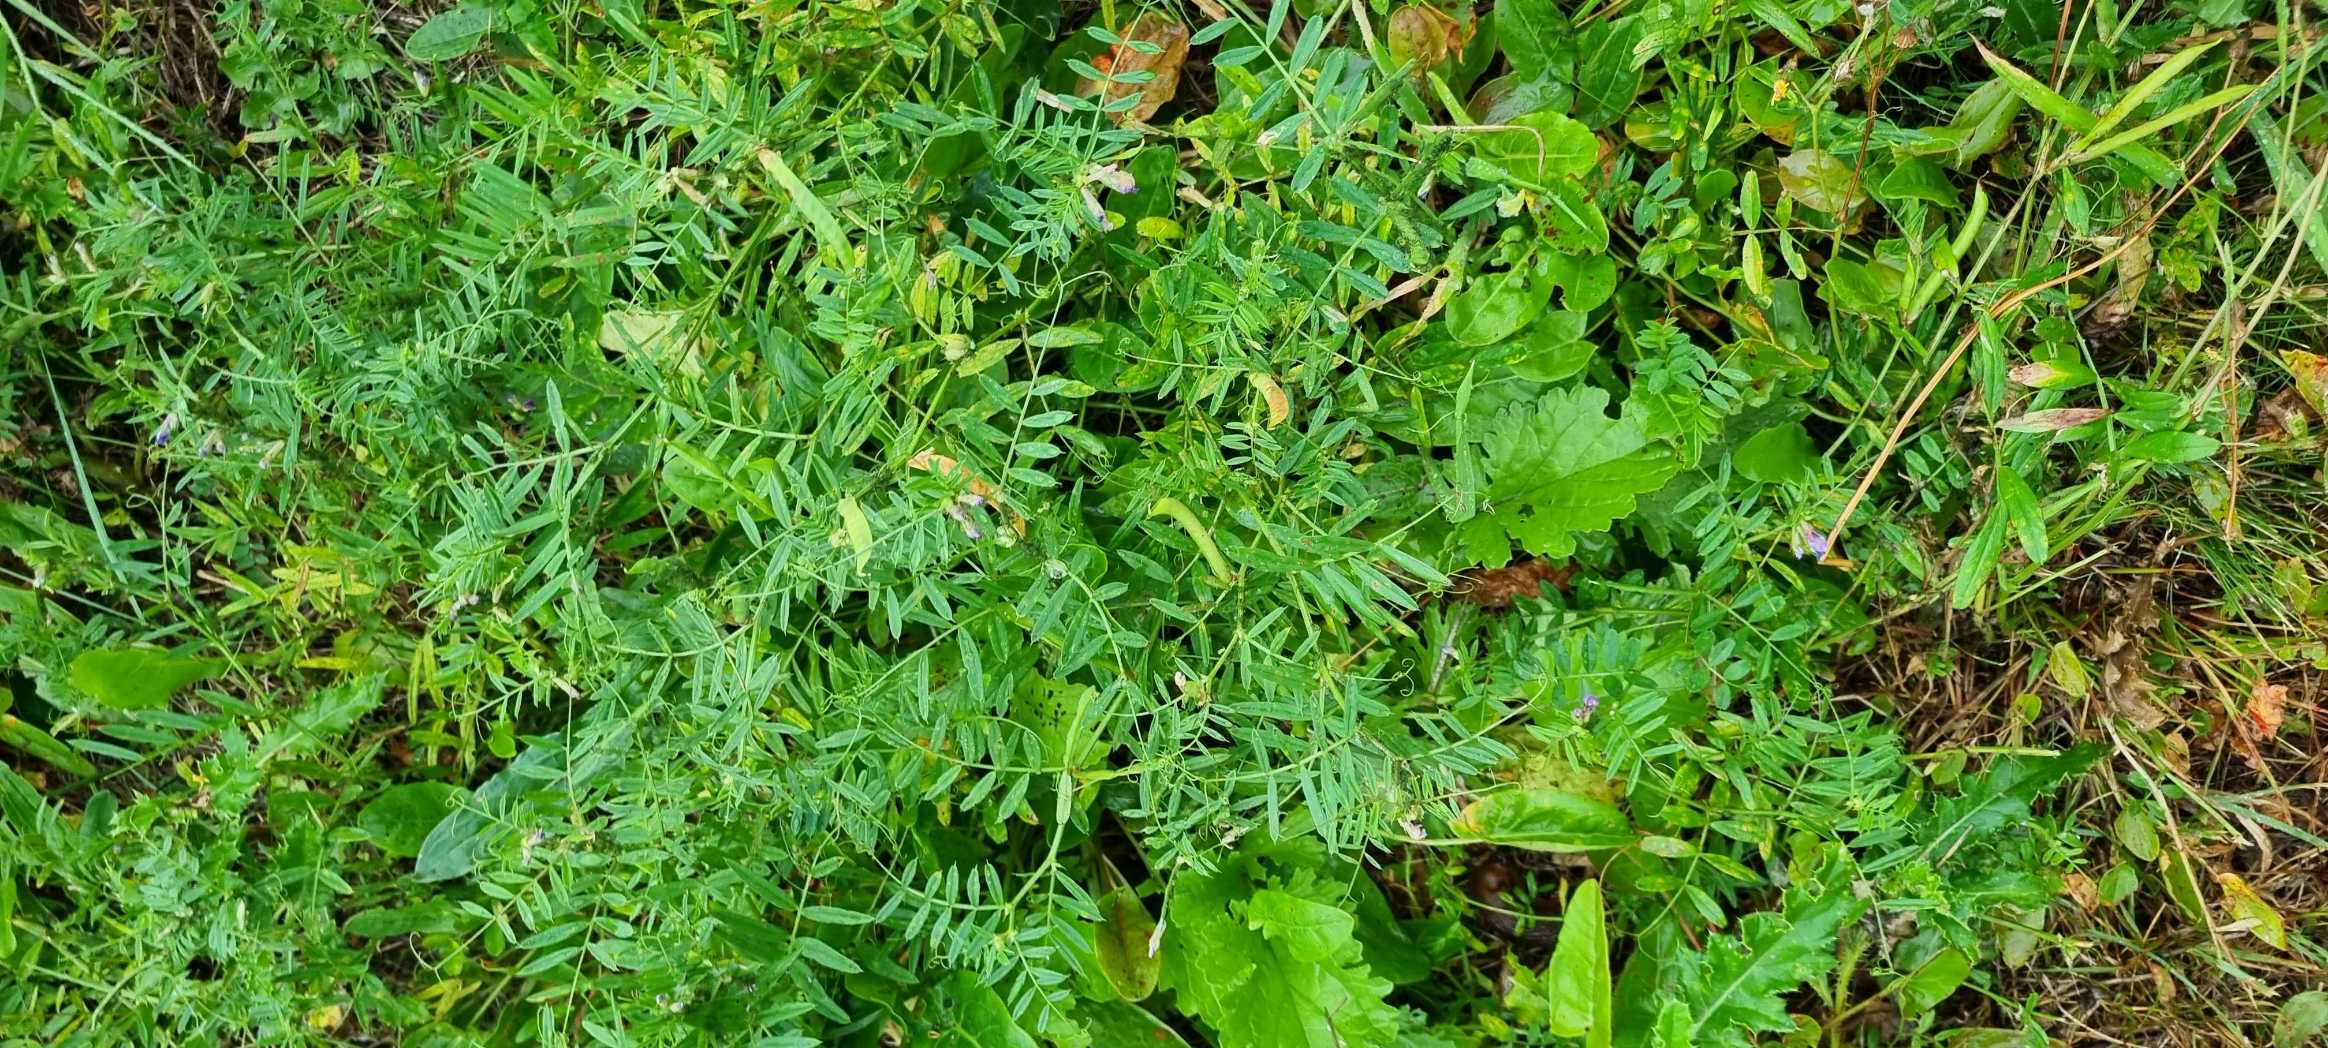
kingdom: Plantae
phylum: Tracheophyta
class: Magnoliopsida
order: Fabales
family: Fabaceae
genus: Vicia
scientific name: Vicia cracca
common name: Muse-vikke
